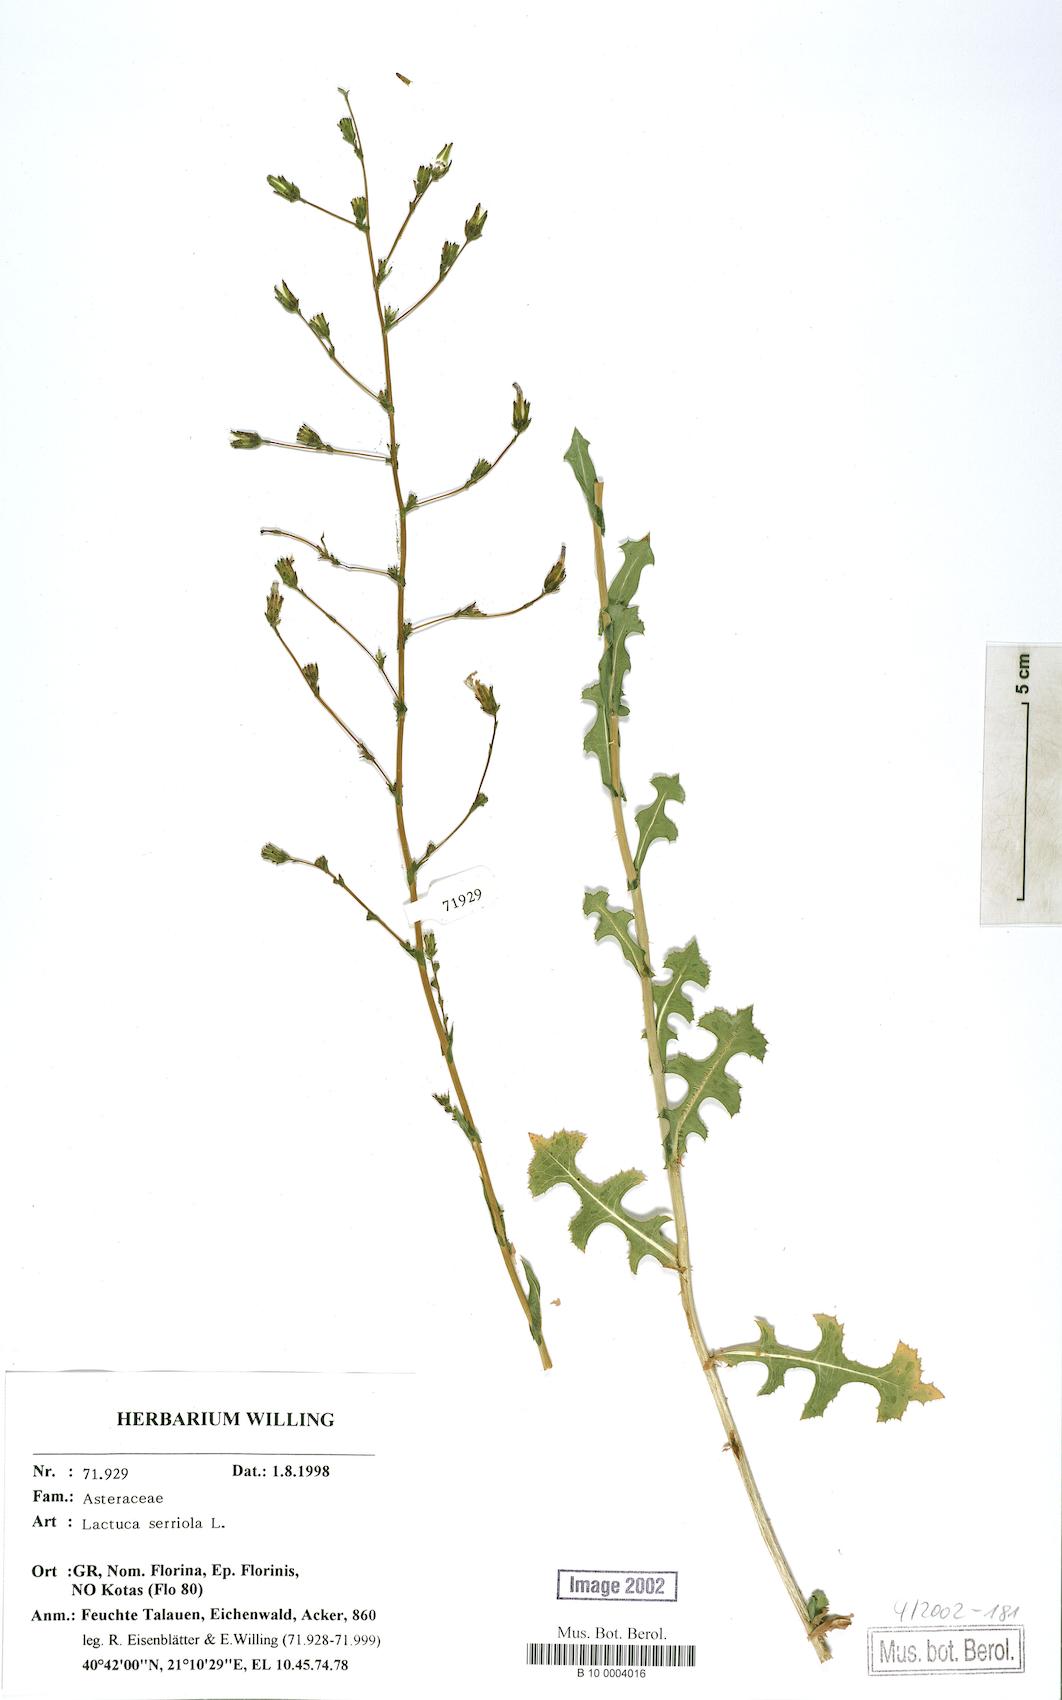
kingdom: Plantae
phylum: Tracheophyta
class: Magnoliopsida
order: Asterales
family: Asteraceae
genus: Lactuca
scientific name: Lactuca serriola
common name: Prickly lettuce
